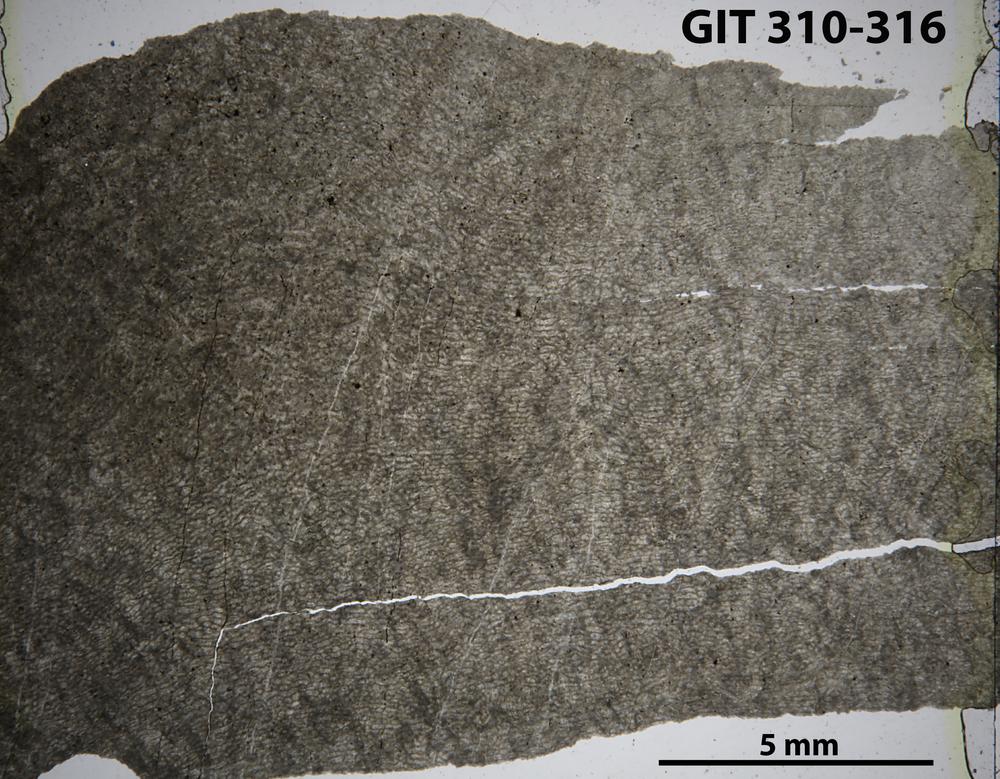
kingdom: Animalia
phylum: Porifera
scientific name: Porifera
